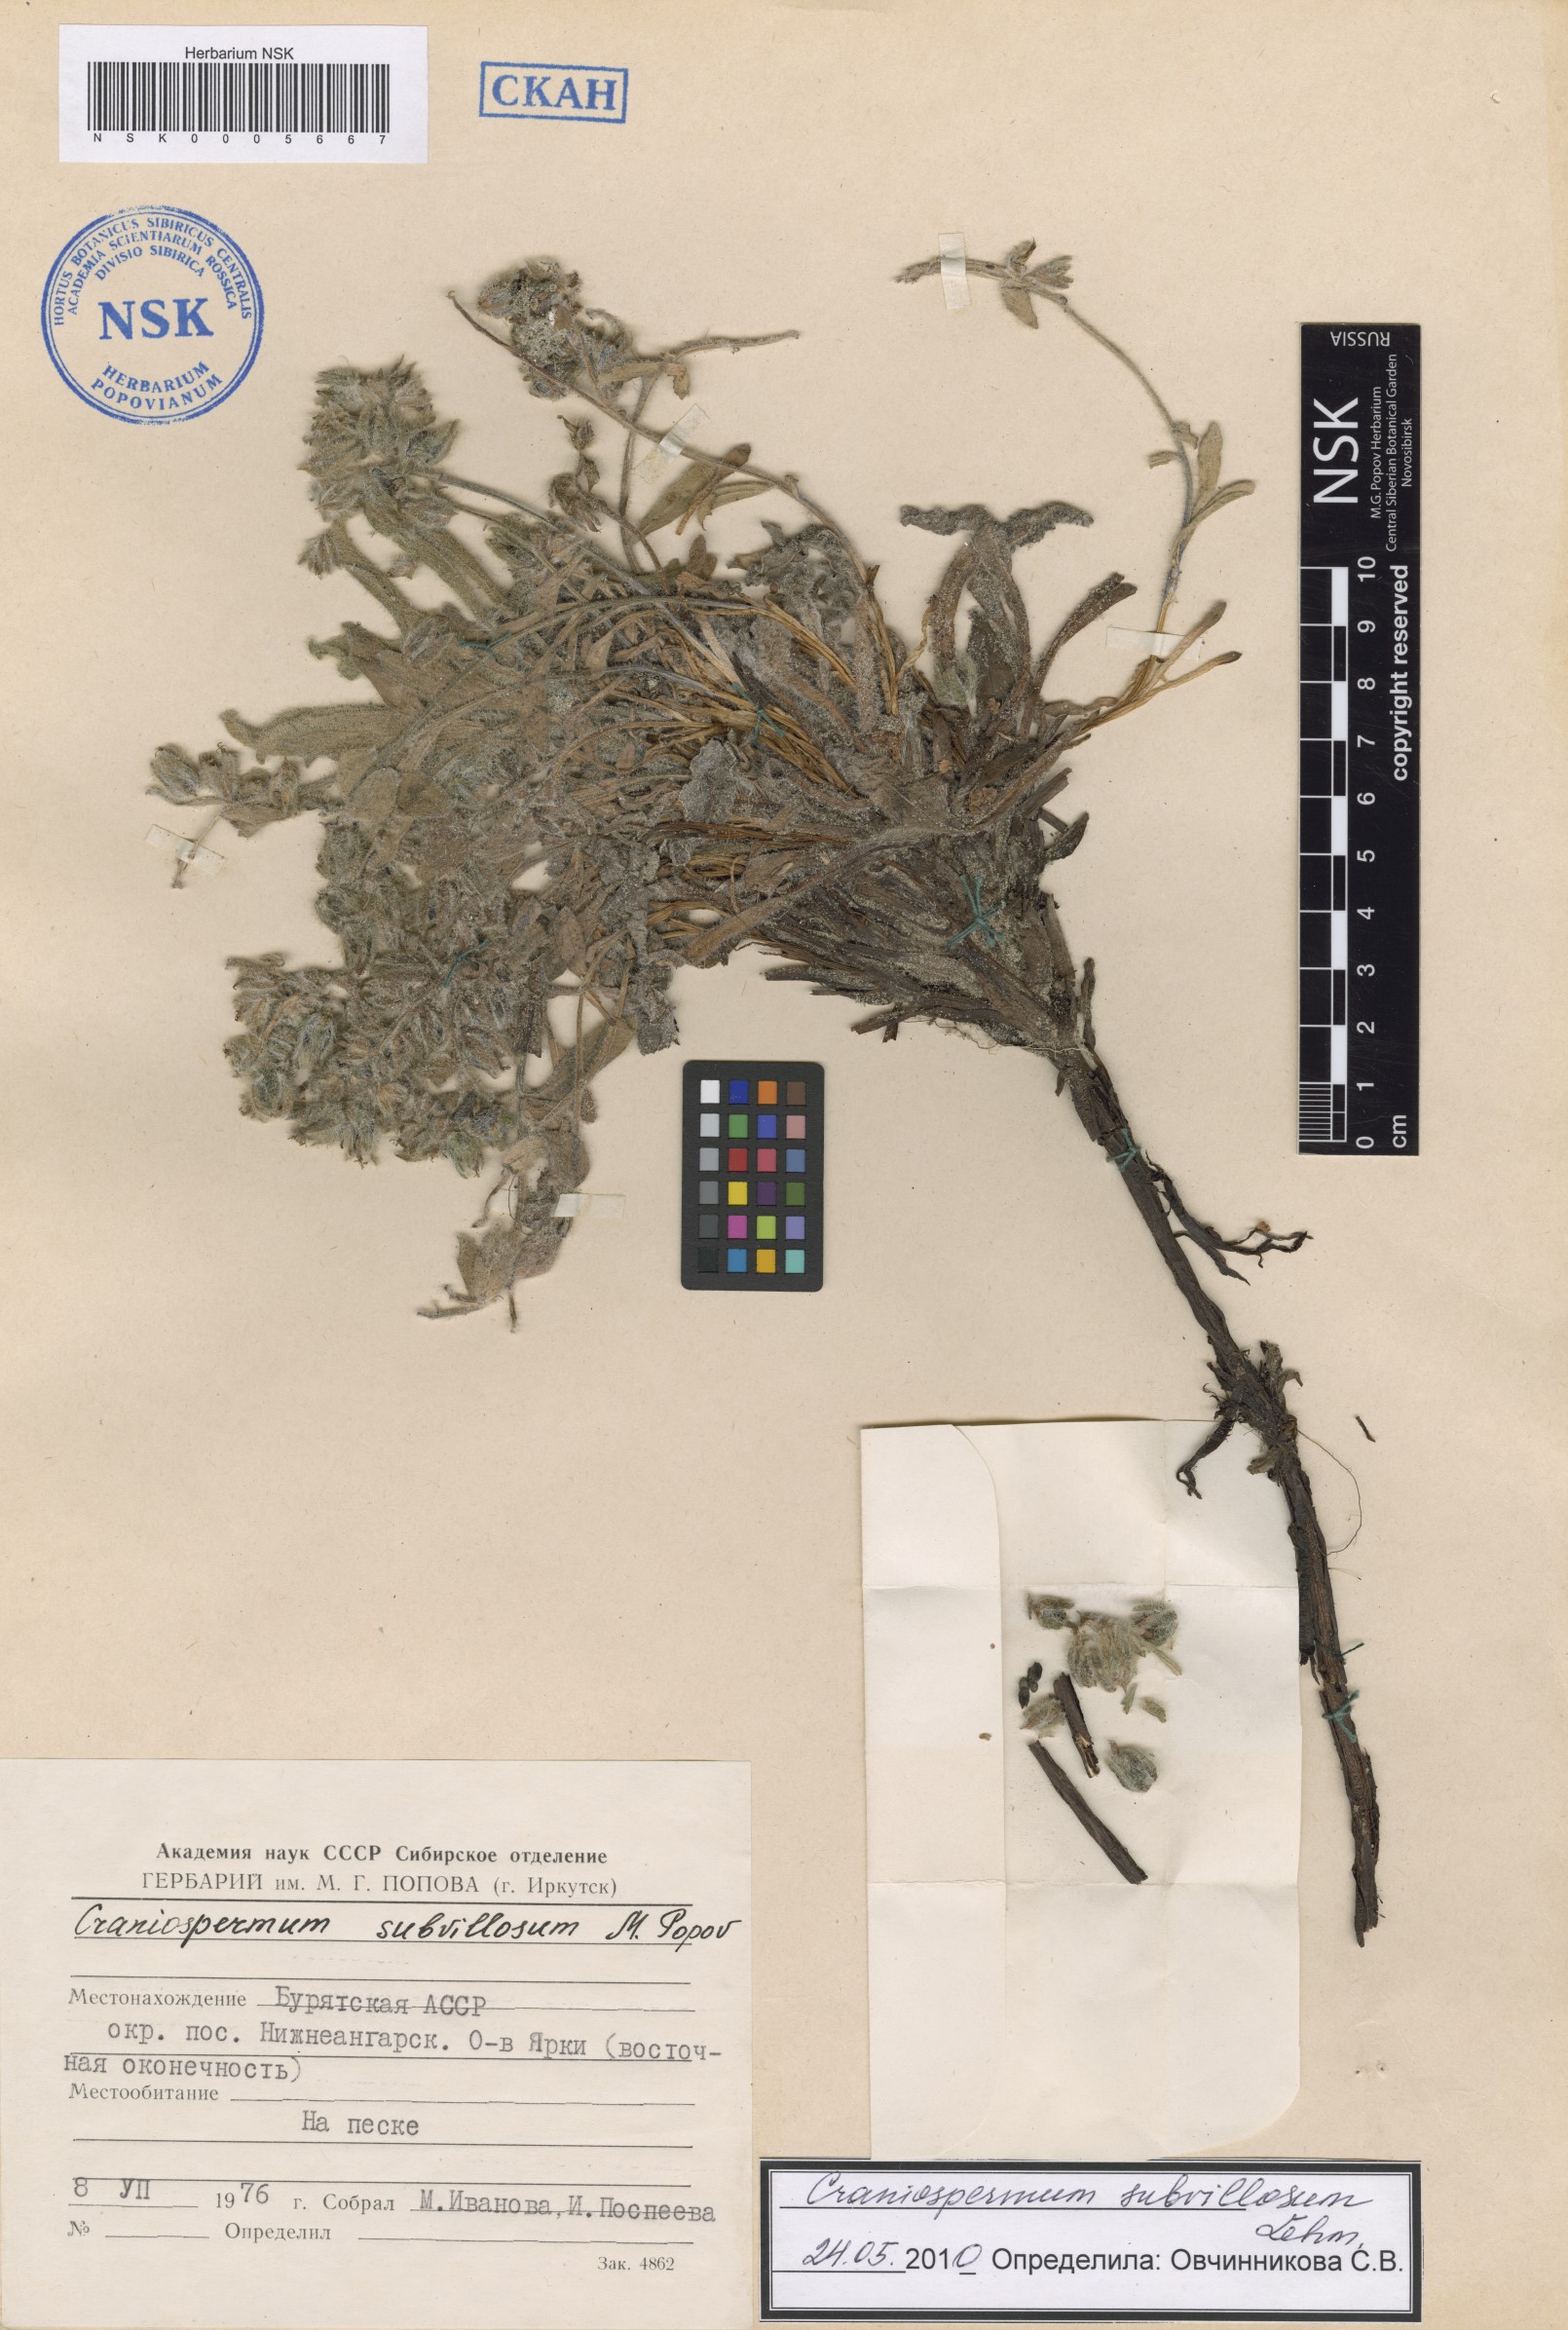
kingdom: Plantae
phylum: Tracheophyta
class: Magnoliopsida
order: Boraginales
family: Boraginaceae
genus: Craniospermum
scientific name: Craniospermum subvillosum
